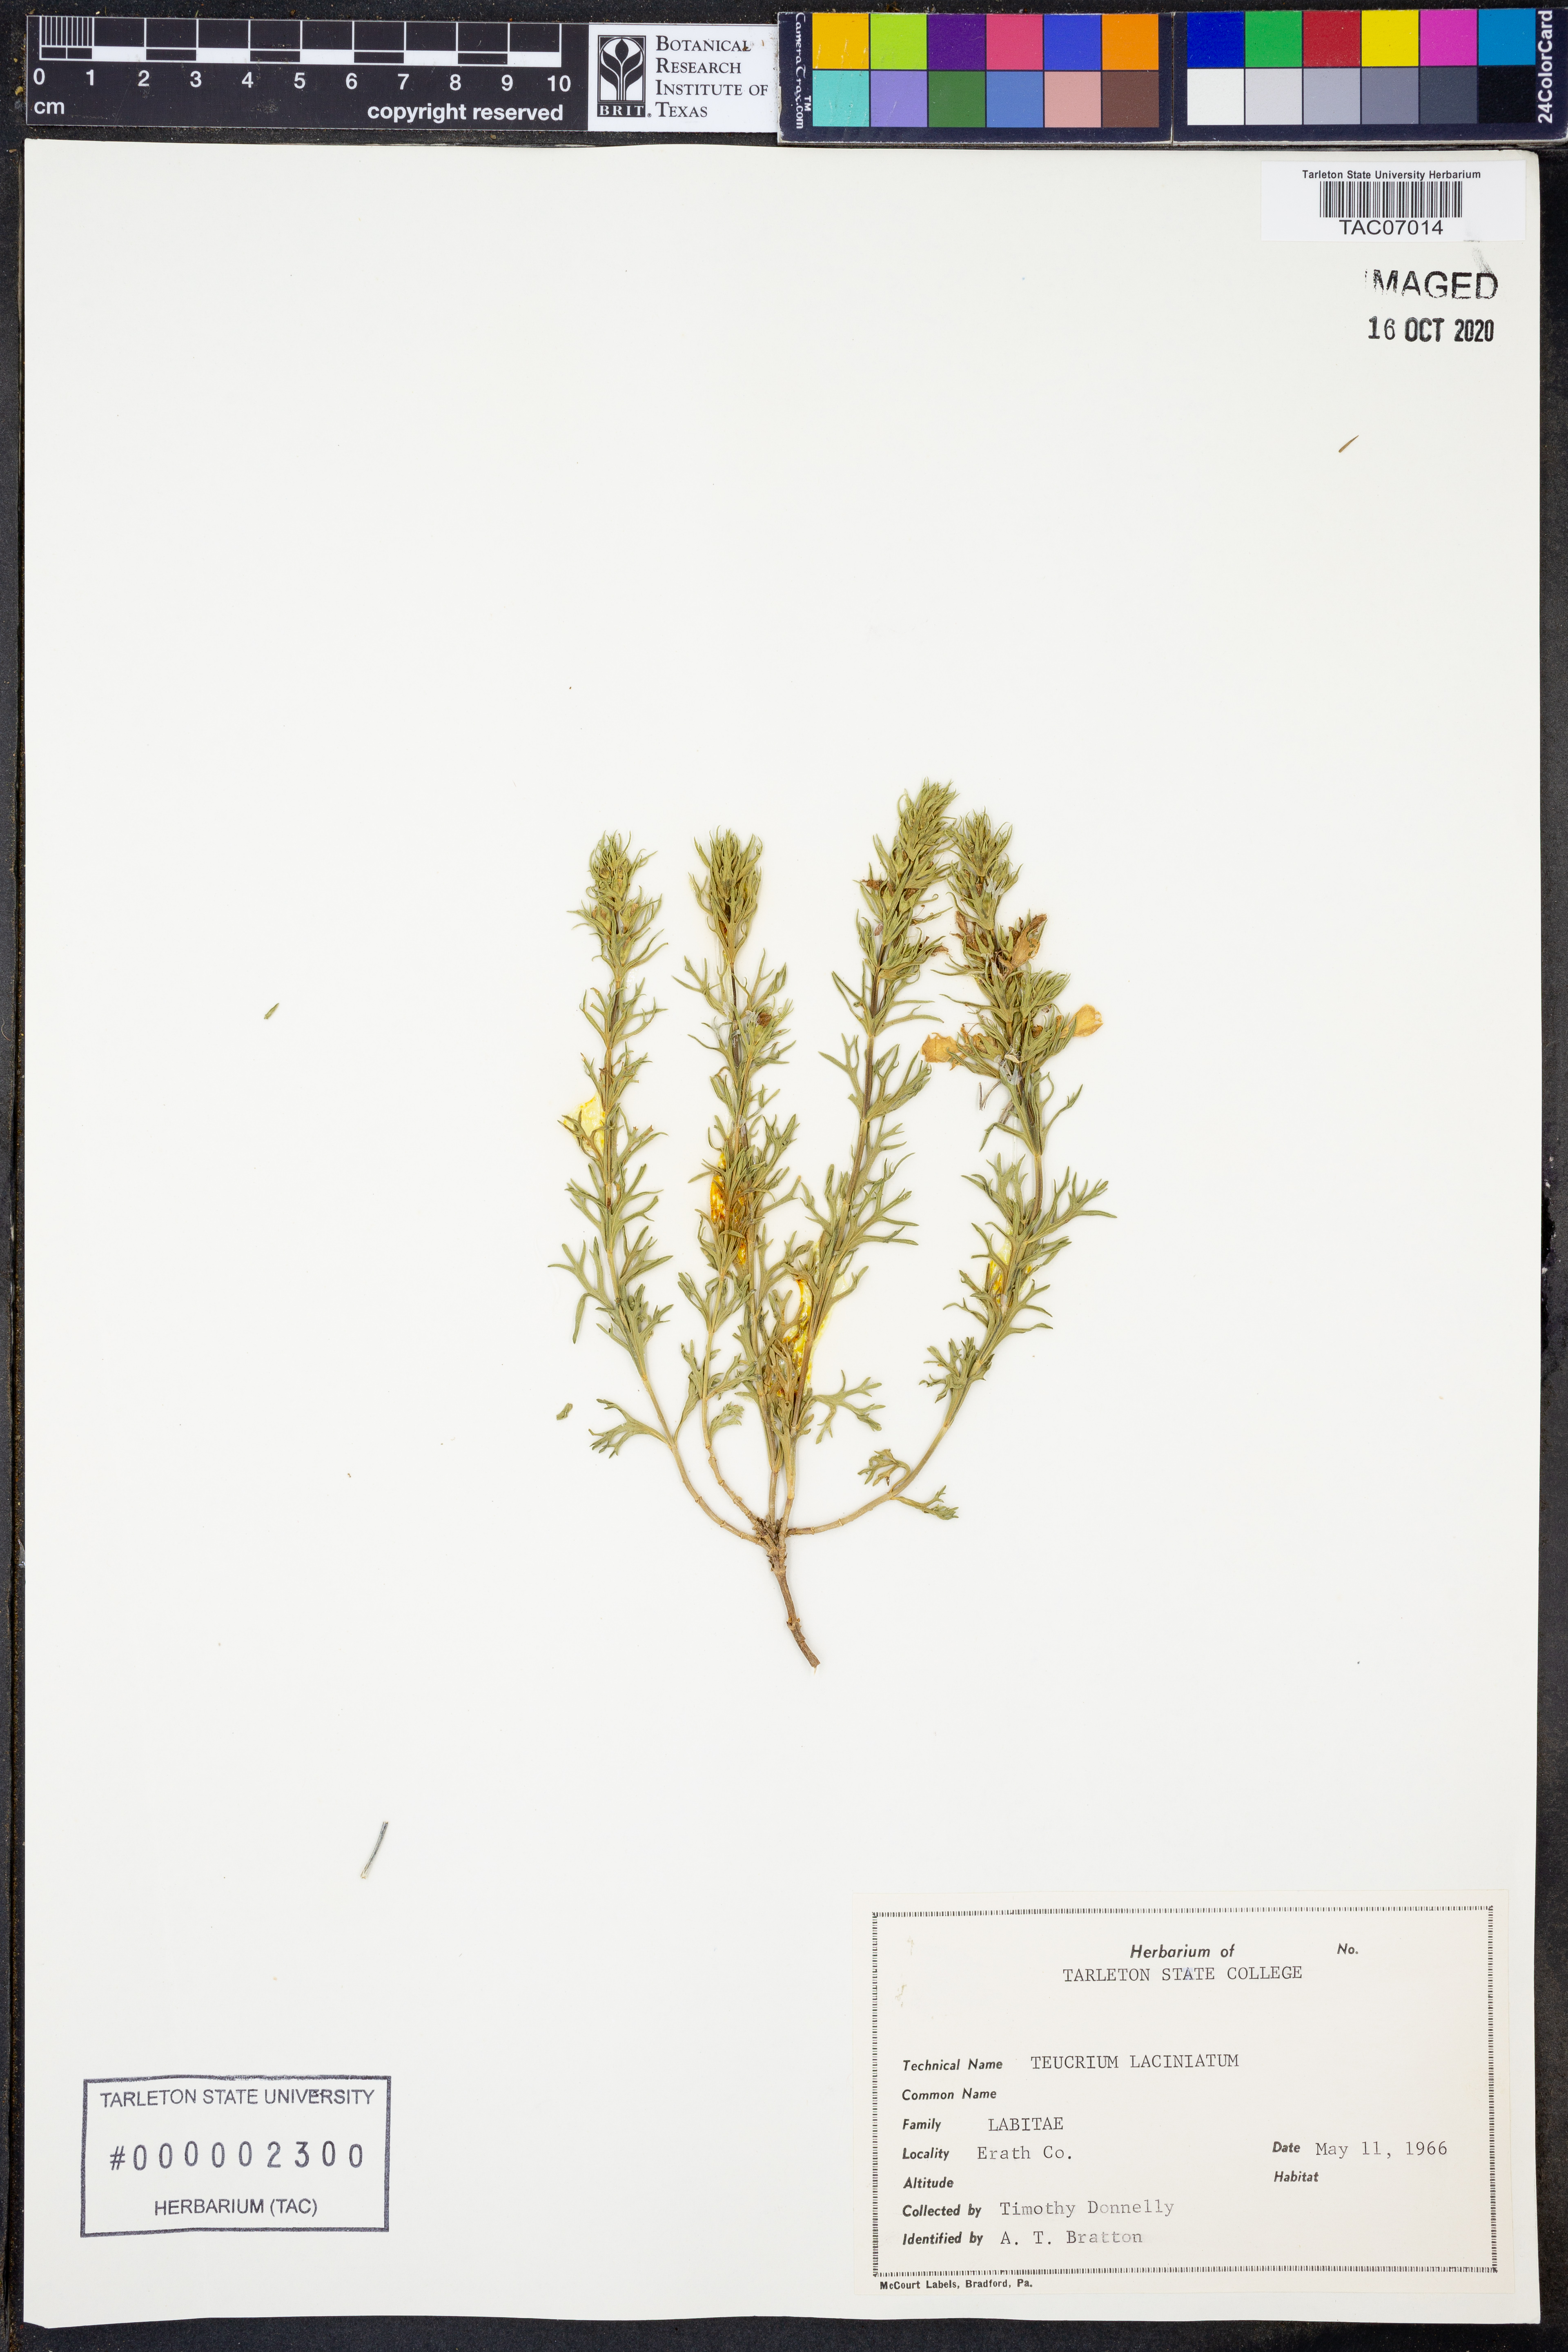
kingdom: Plantae
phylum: Tracheophyta
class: Magnoliopsida
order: Lamiales
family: Lamiaceae
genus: Teucrium
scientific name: Teucrium laciniatum
